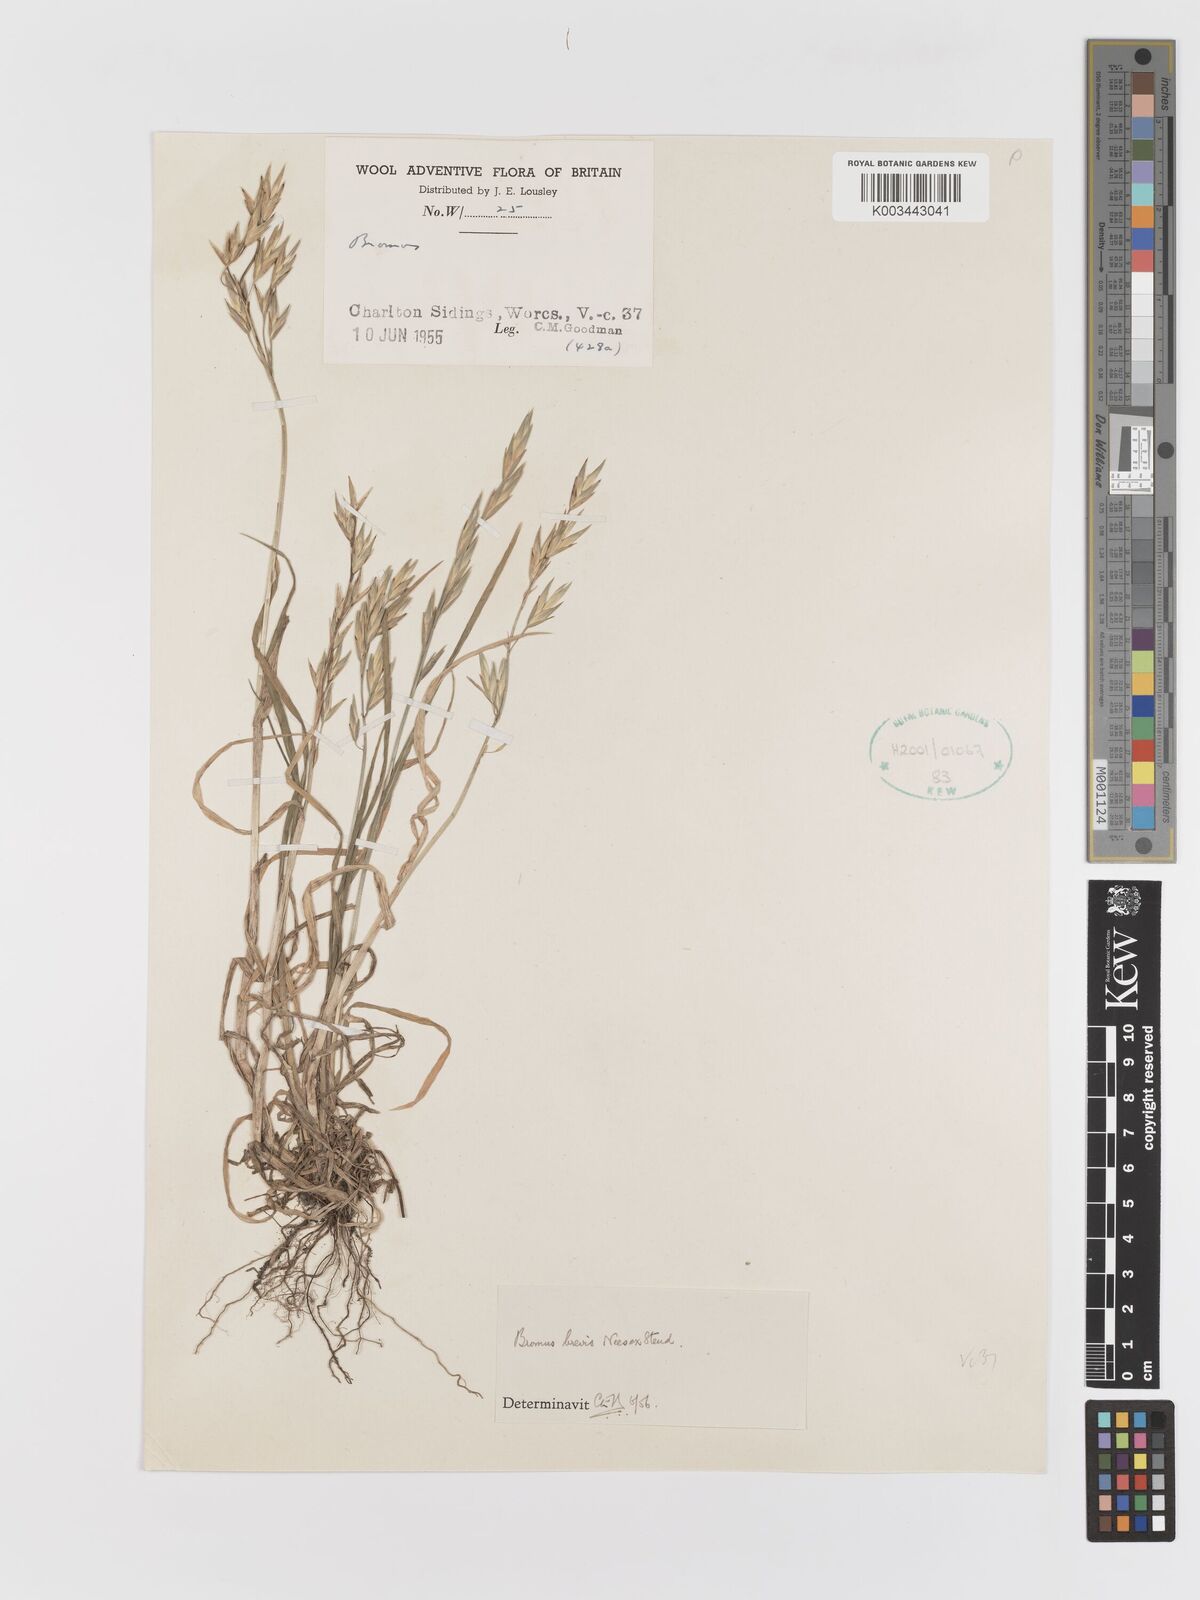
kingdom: Plantae
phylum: Tracheophyta
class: Liliopsida
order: Poales
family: Poaceae
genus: Bromus
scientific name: Bromus catharticus
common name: Rescuegrass
